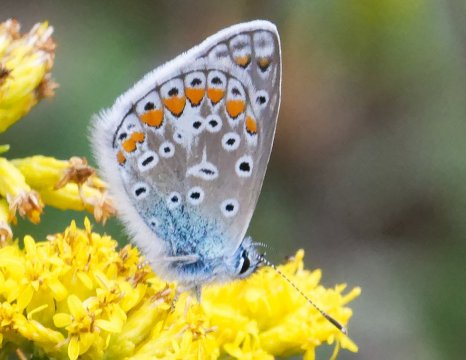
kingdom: Animalia
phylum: Arthropoda
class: Insecta
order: Lepidoptera
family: Lycaenidae
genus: Polyommatus
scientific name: Polyommatus icarus
